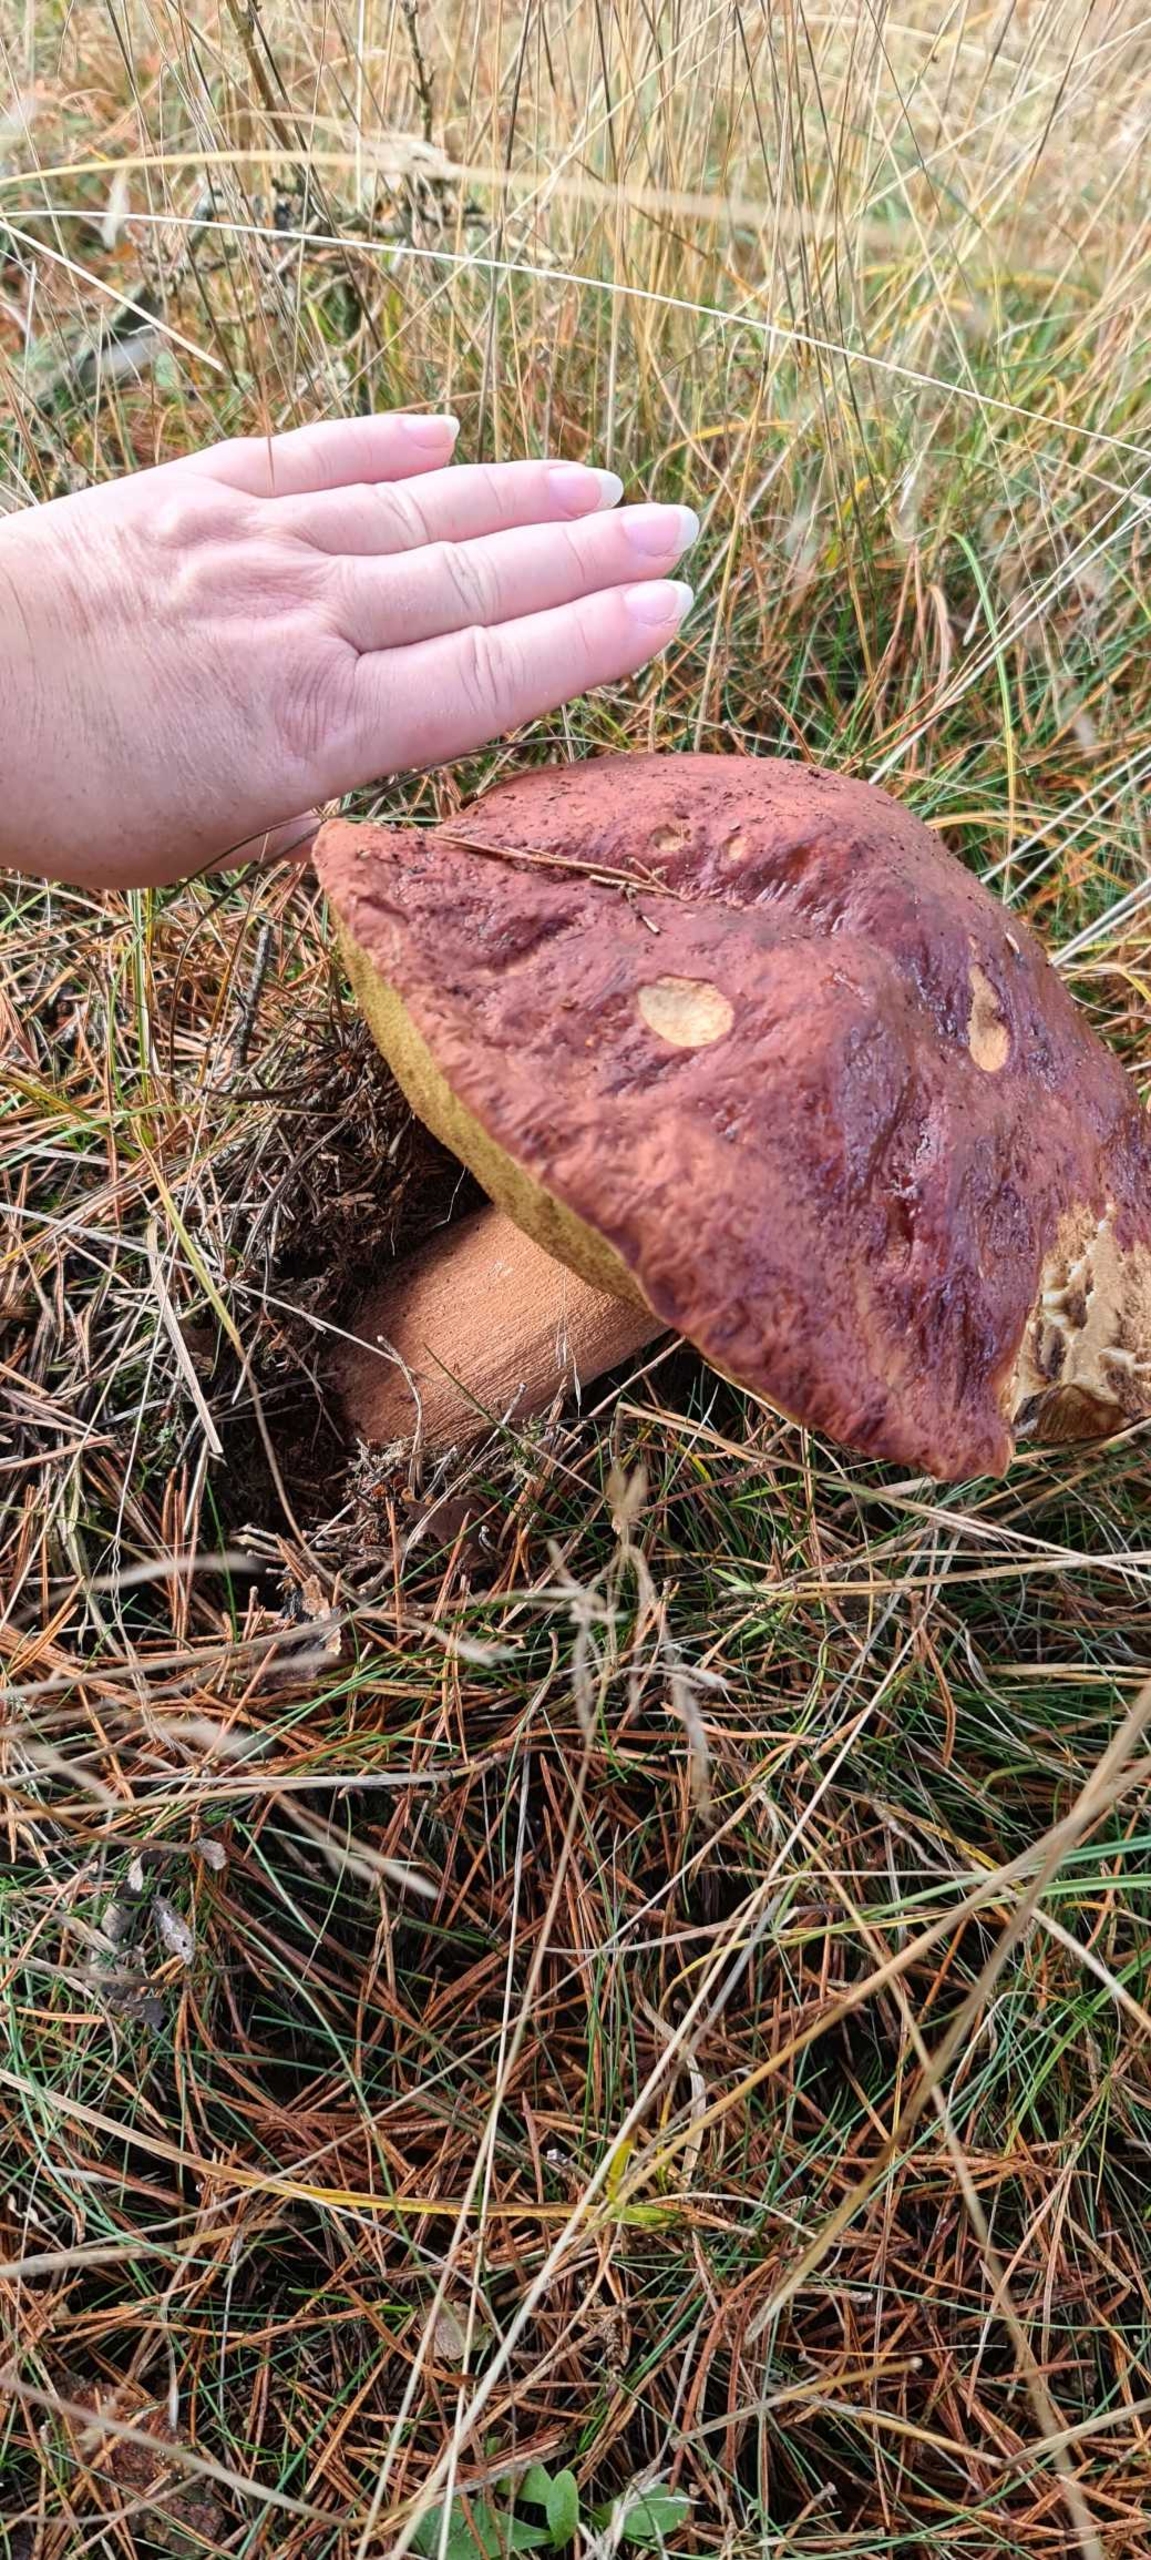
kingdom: Fungi
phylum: Basidiomycota
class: Agaricomycetes
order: Boletales
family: Boletaceae
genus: Boletus
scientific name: Boletus pinophilus
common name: Rødbrun rørhat
